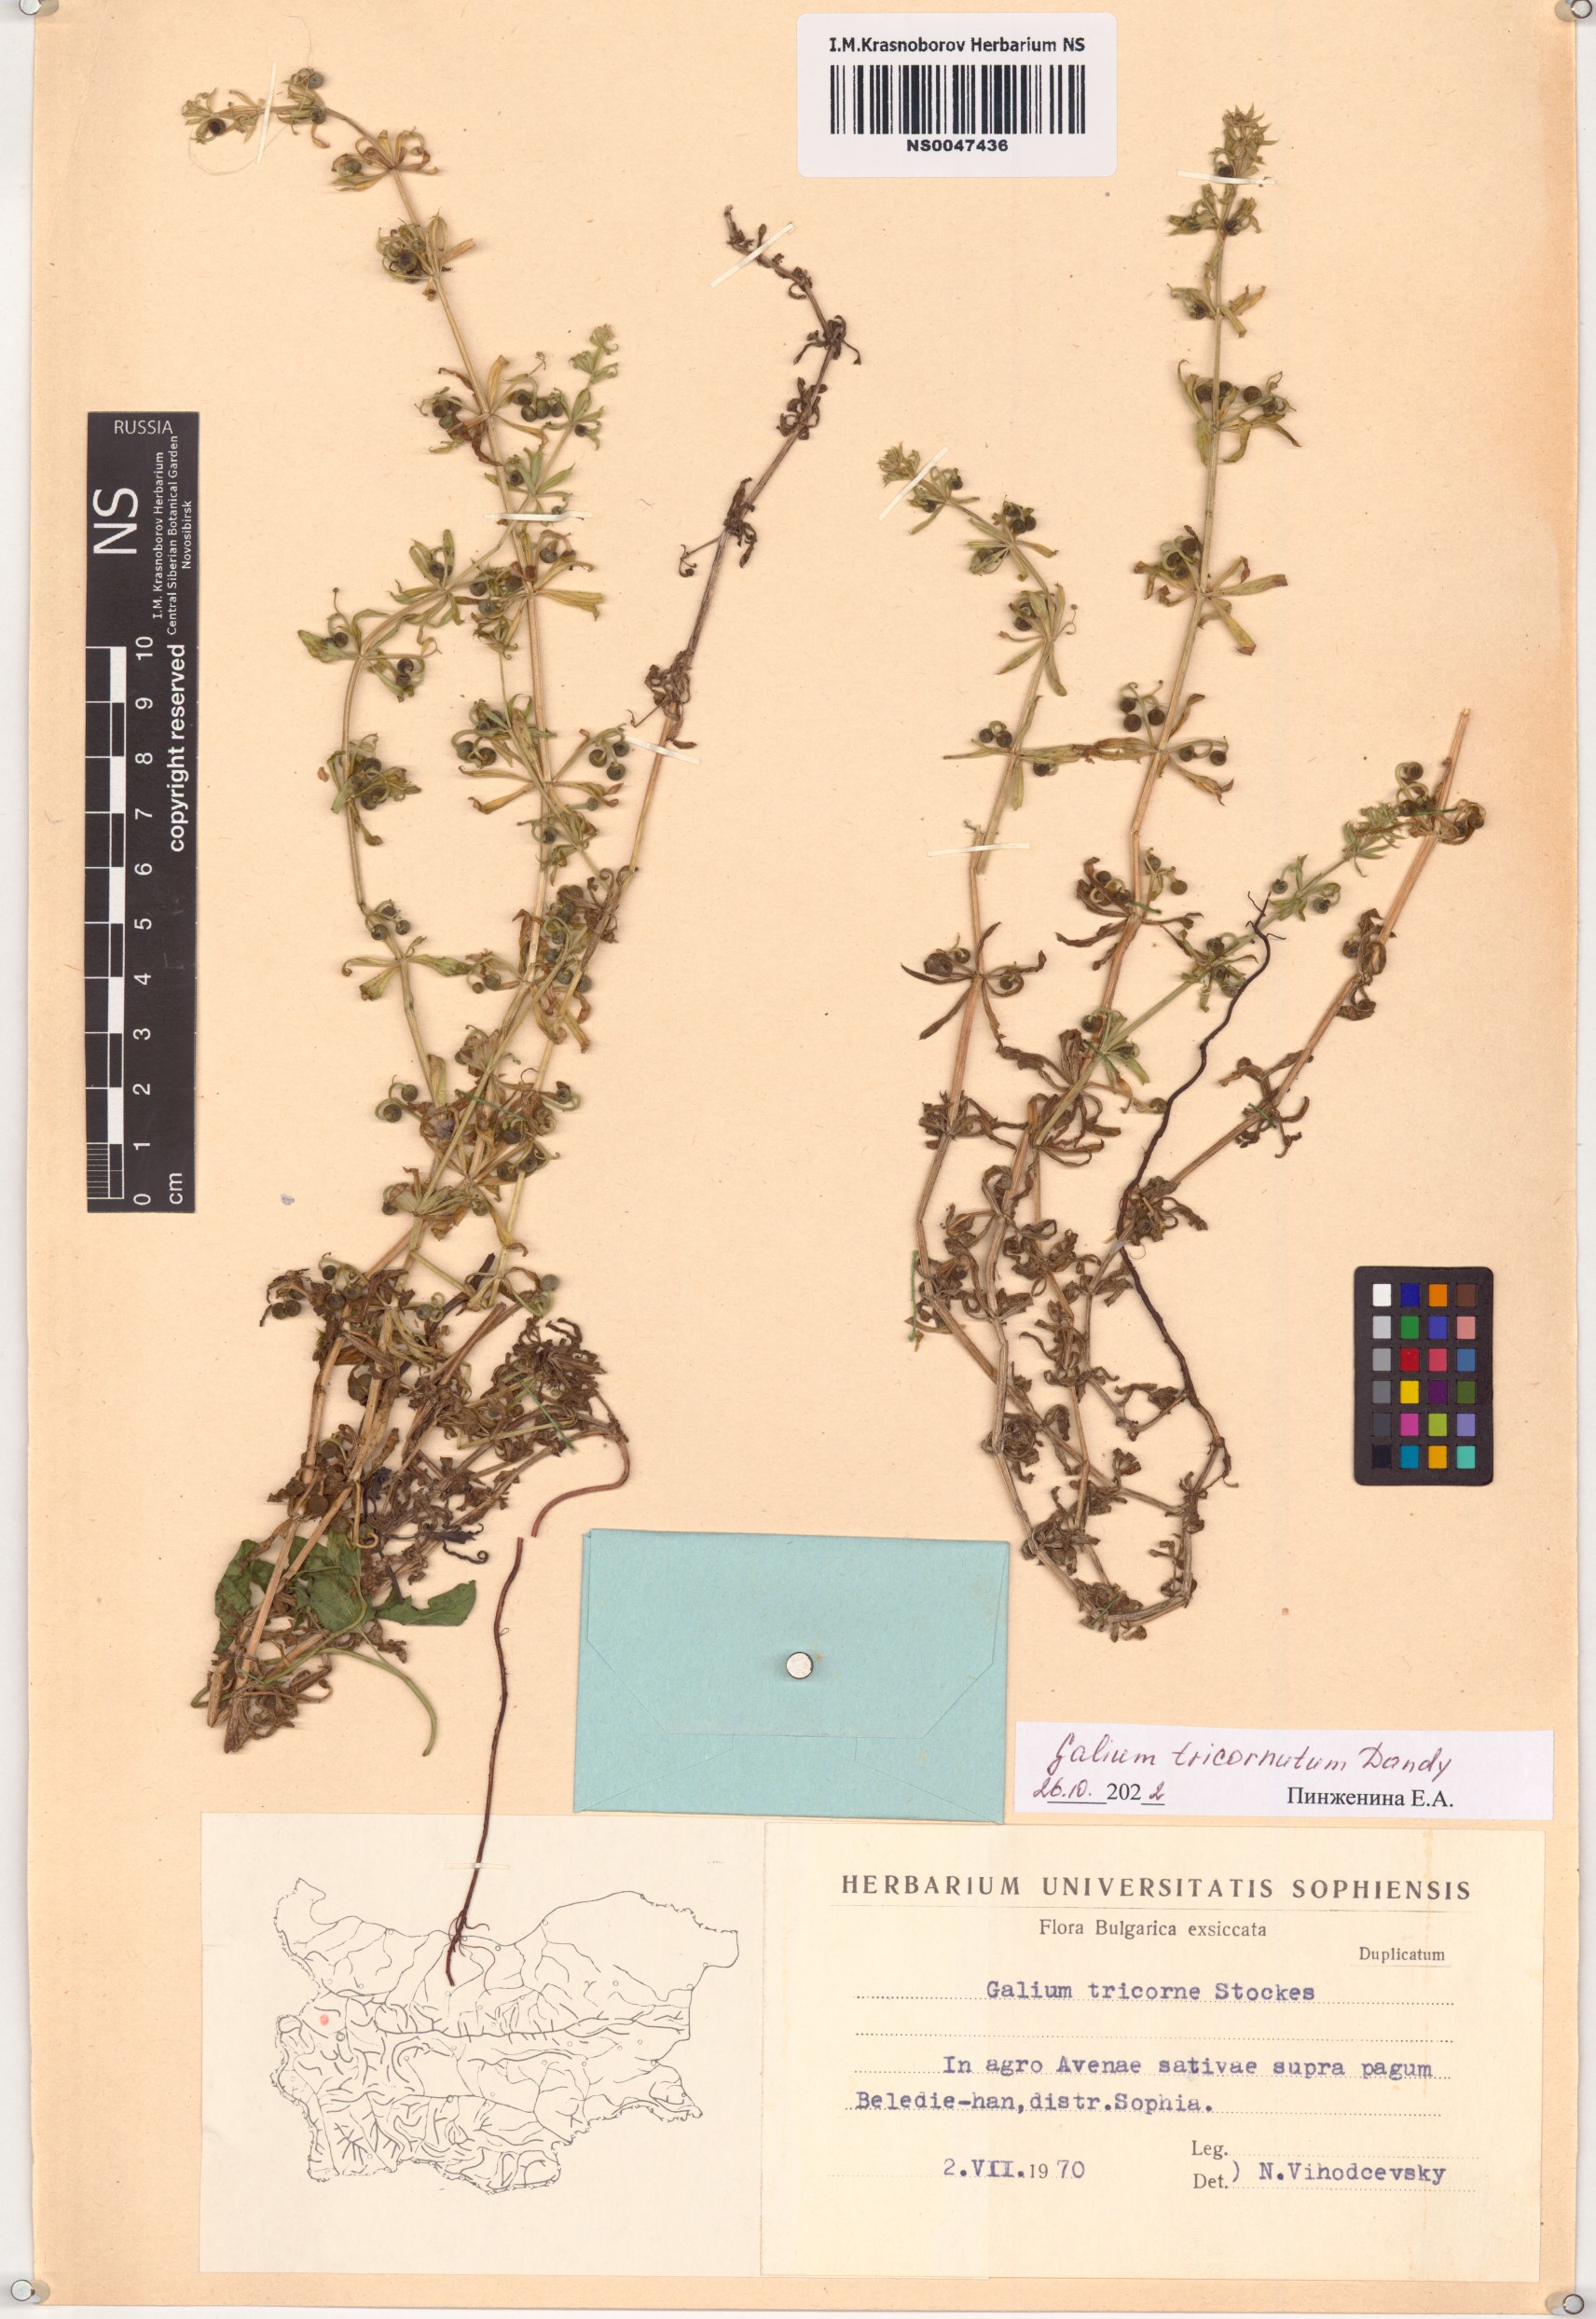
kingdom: Plantae
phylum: Tracheophyta
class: Magnoliopsida
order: Gentianales
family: Rubiaceae
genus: Galium
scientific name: Galium tricornutum
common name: Corn cleavers
